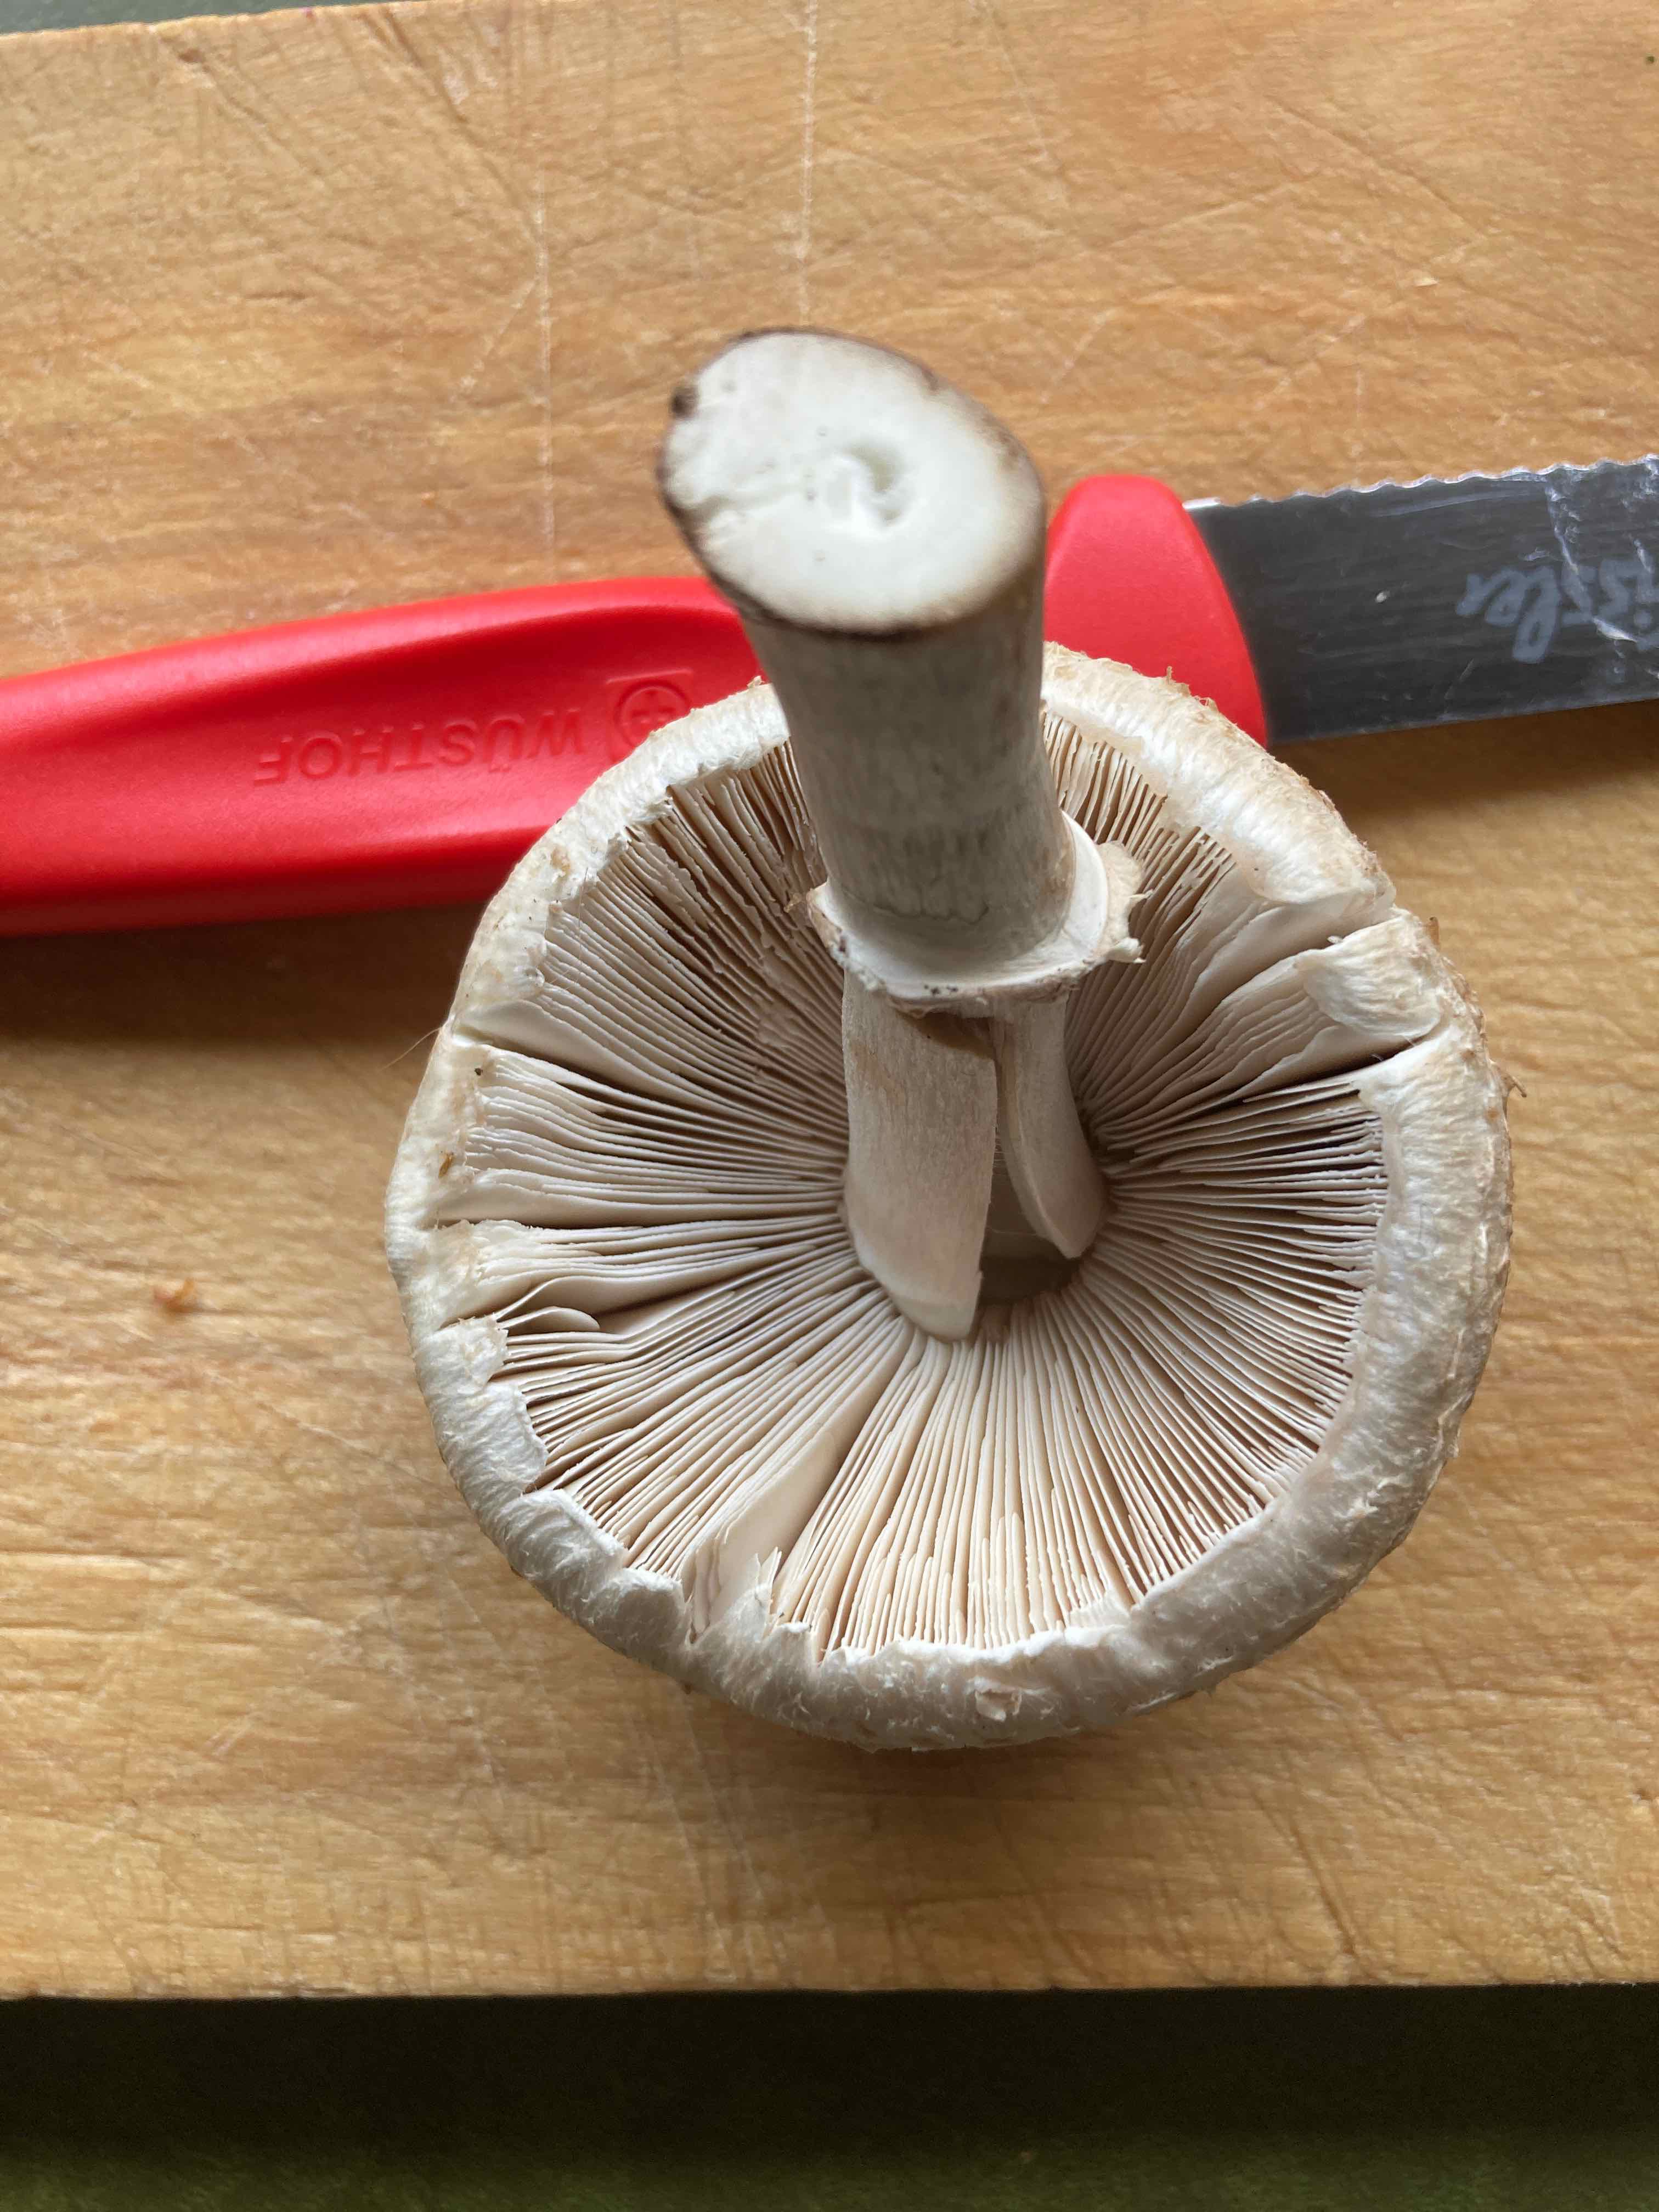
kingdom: Fungi
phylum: Basidiomycota
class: Agaricomycetes
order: Agaricales
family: Agaricaceae
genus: Macrolepiota
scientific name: Macrolepiota excoriata
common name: mark-kæmpeparasolhat
